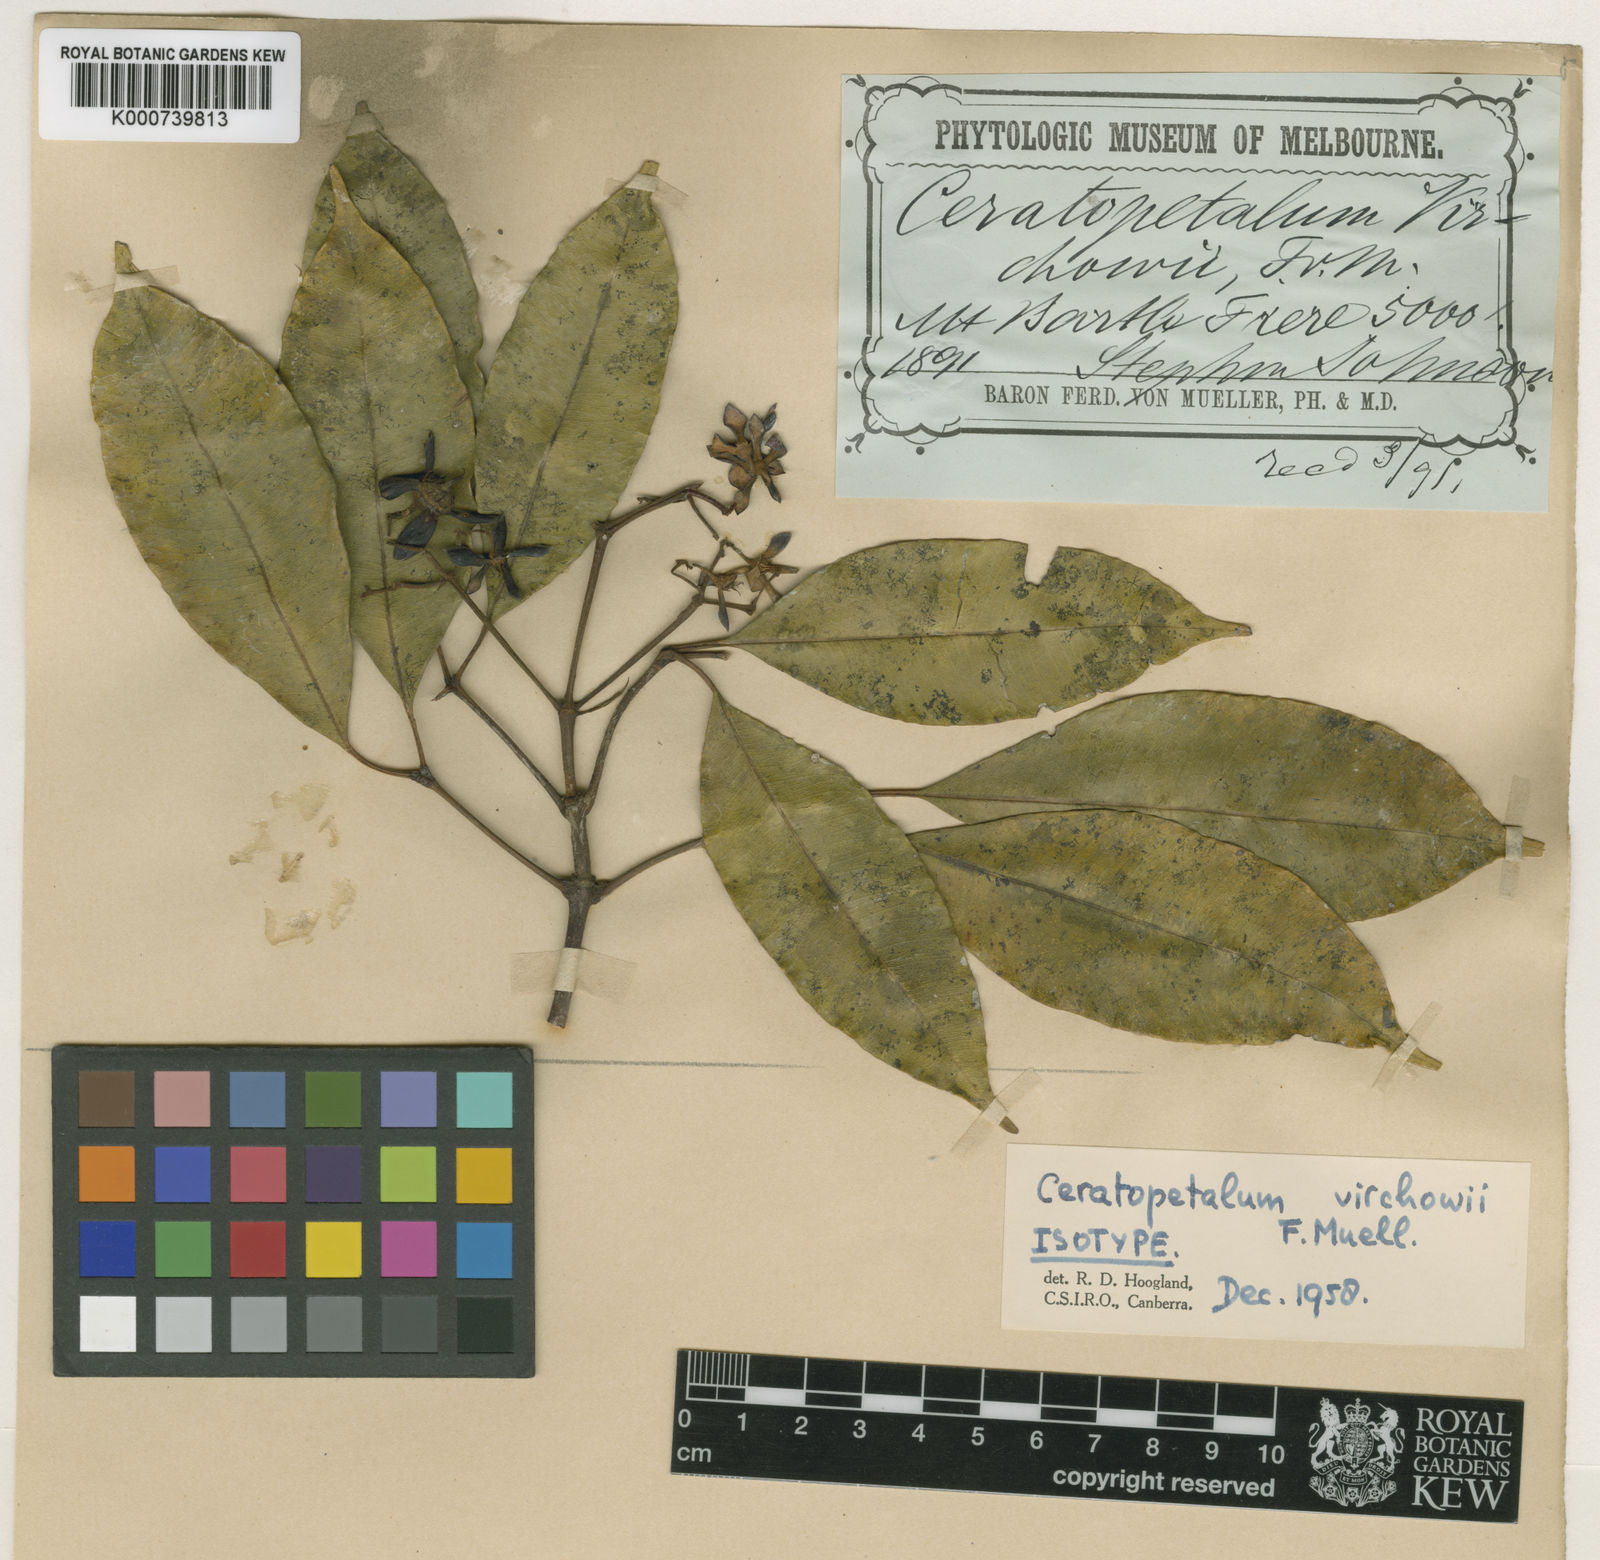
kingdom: Plantae
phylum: Tracheophyta
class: Magnoliopsida
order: Oxalidales
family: Cunoniaceae
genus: Ceratopetalum
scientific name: Ceratopetalum virchowii
